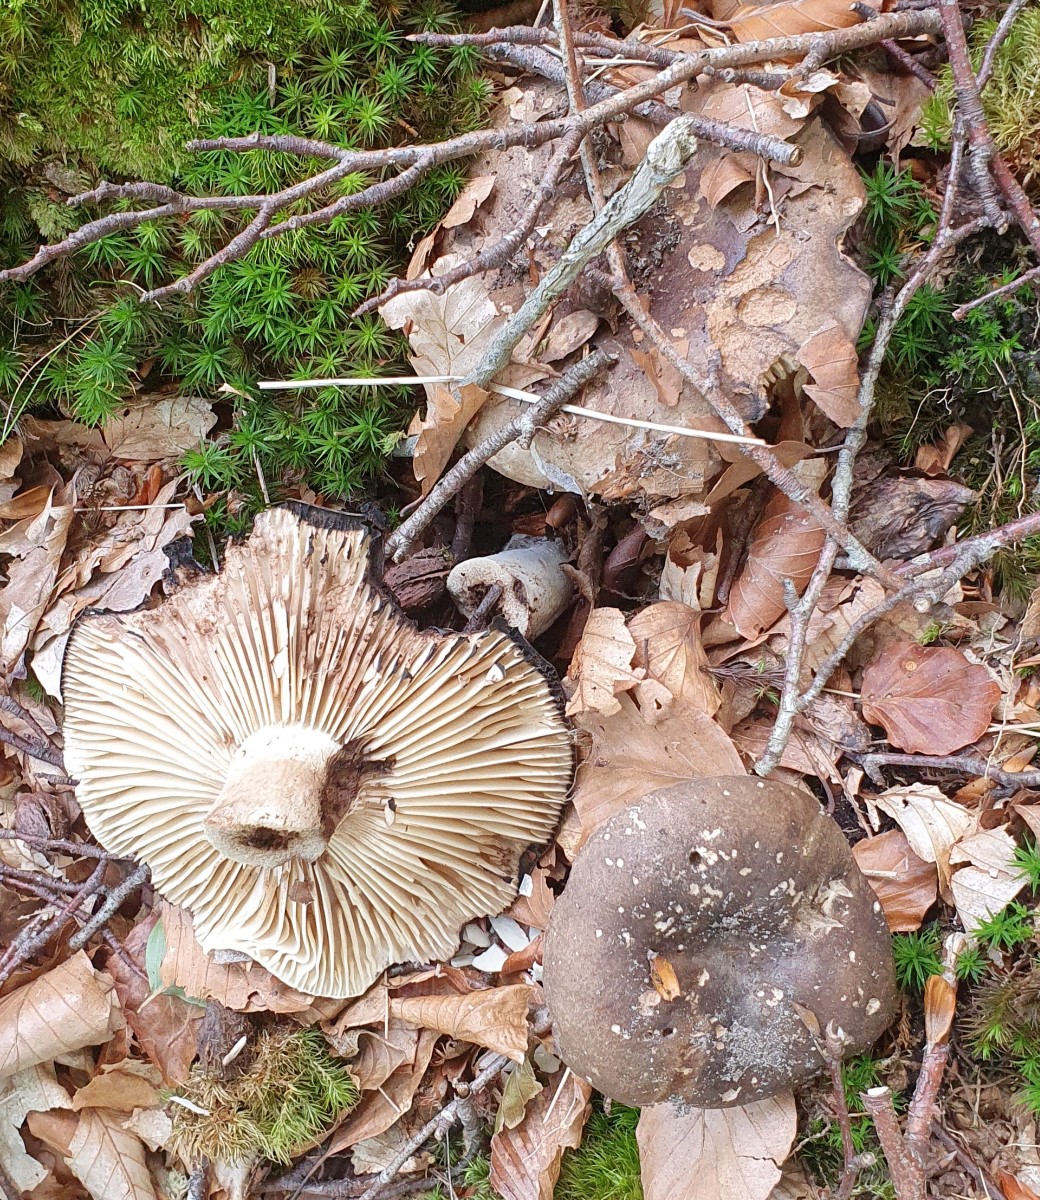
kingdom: Fungi
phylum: Basidiomycota
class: Agaricomycetes
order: Russulales
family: Russulaceae
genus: Russula
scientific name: Russula adusta
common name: sværtende skørhat
